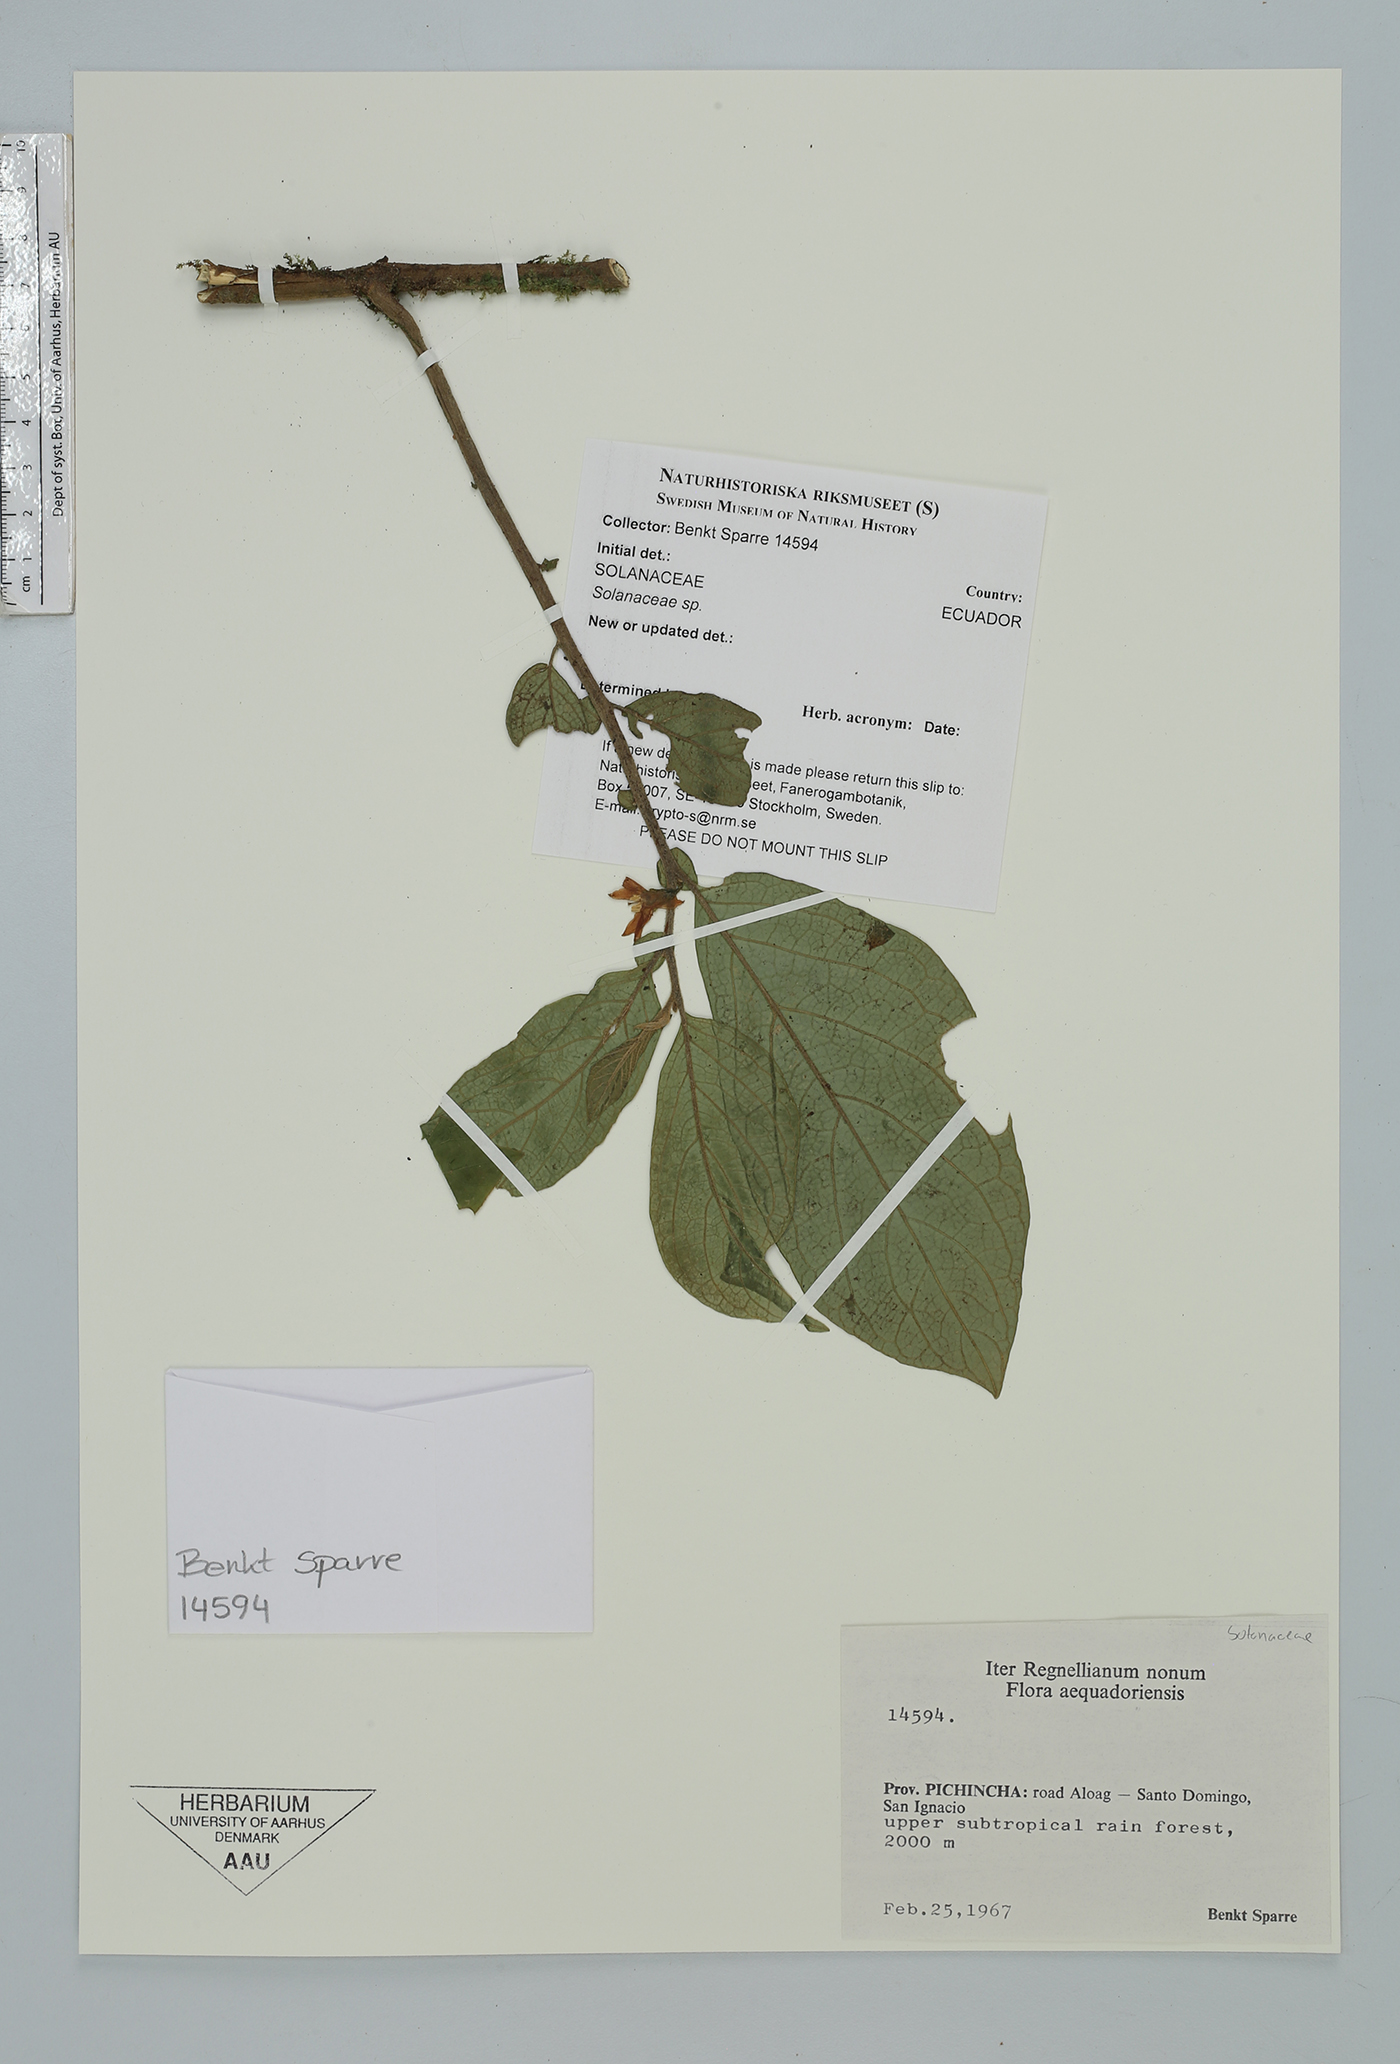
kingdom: Plantae
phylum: Tracheophyta
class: Magnoliopsida
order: Solanales
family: Solanaceae
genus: Cuatresia
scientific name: Cuatresia harlingiana
